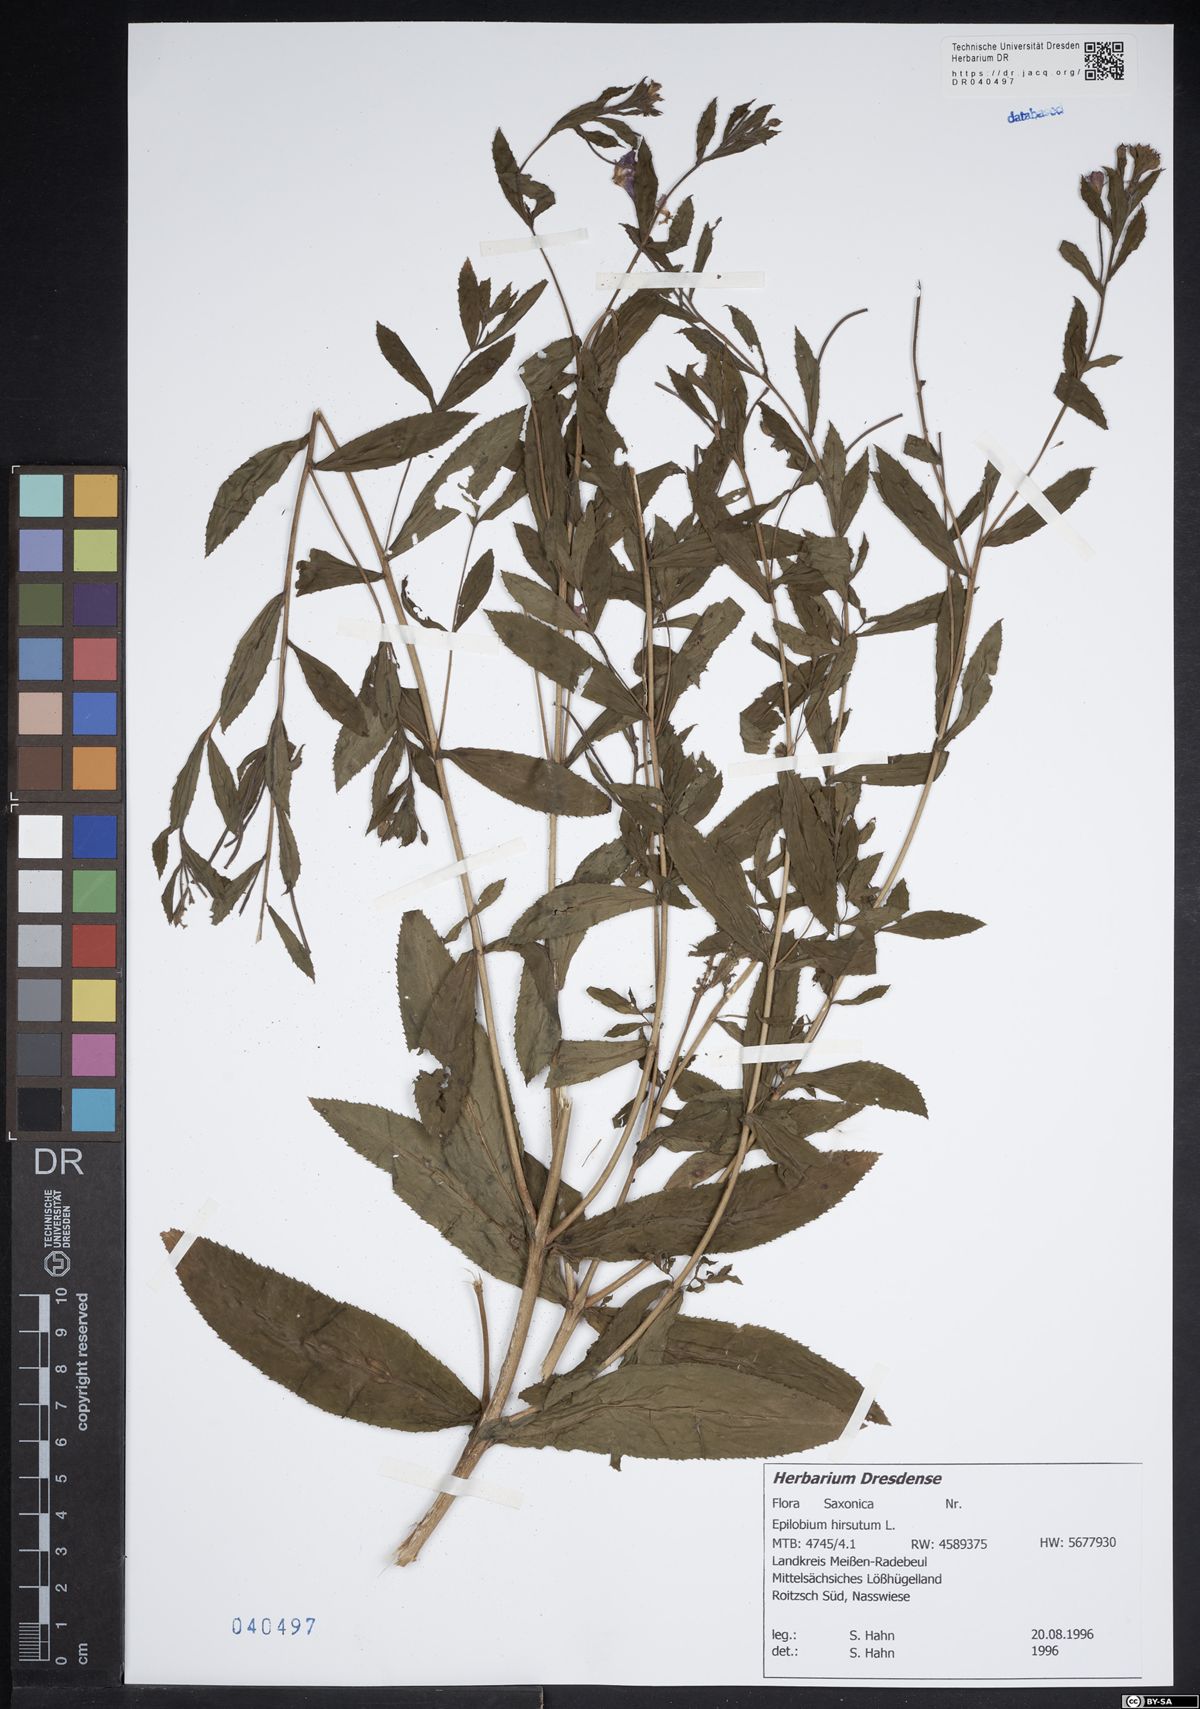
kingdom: Plantae
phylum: Tracheophyta
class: Magnoliopsida
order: Myrtales
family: Onagraceae
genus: Epilobium
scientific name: Epilobium hirsutum
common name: Great willowherb
